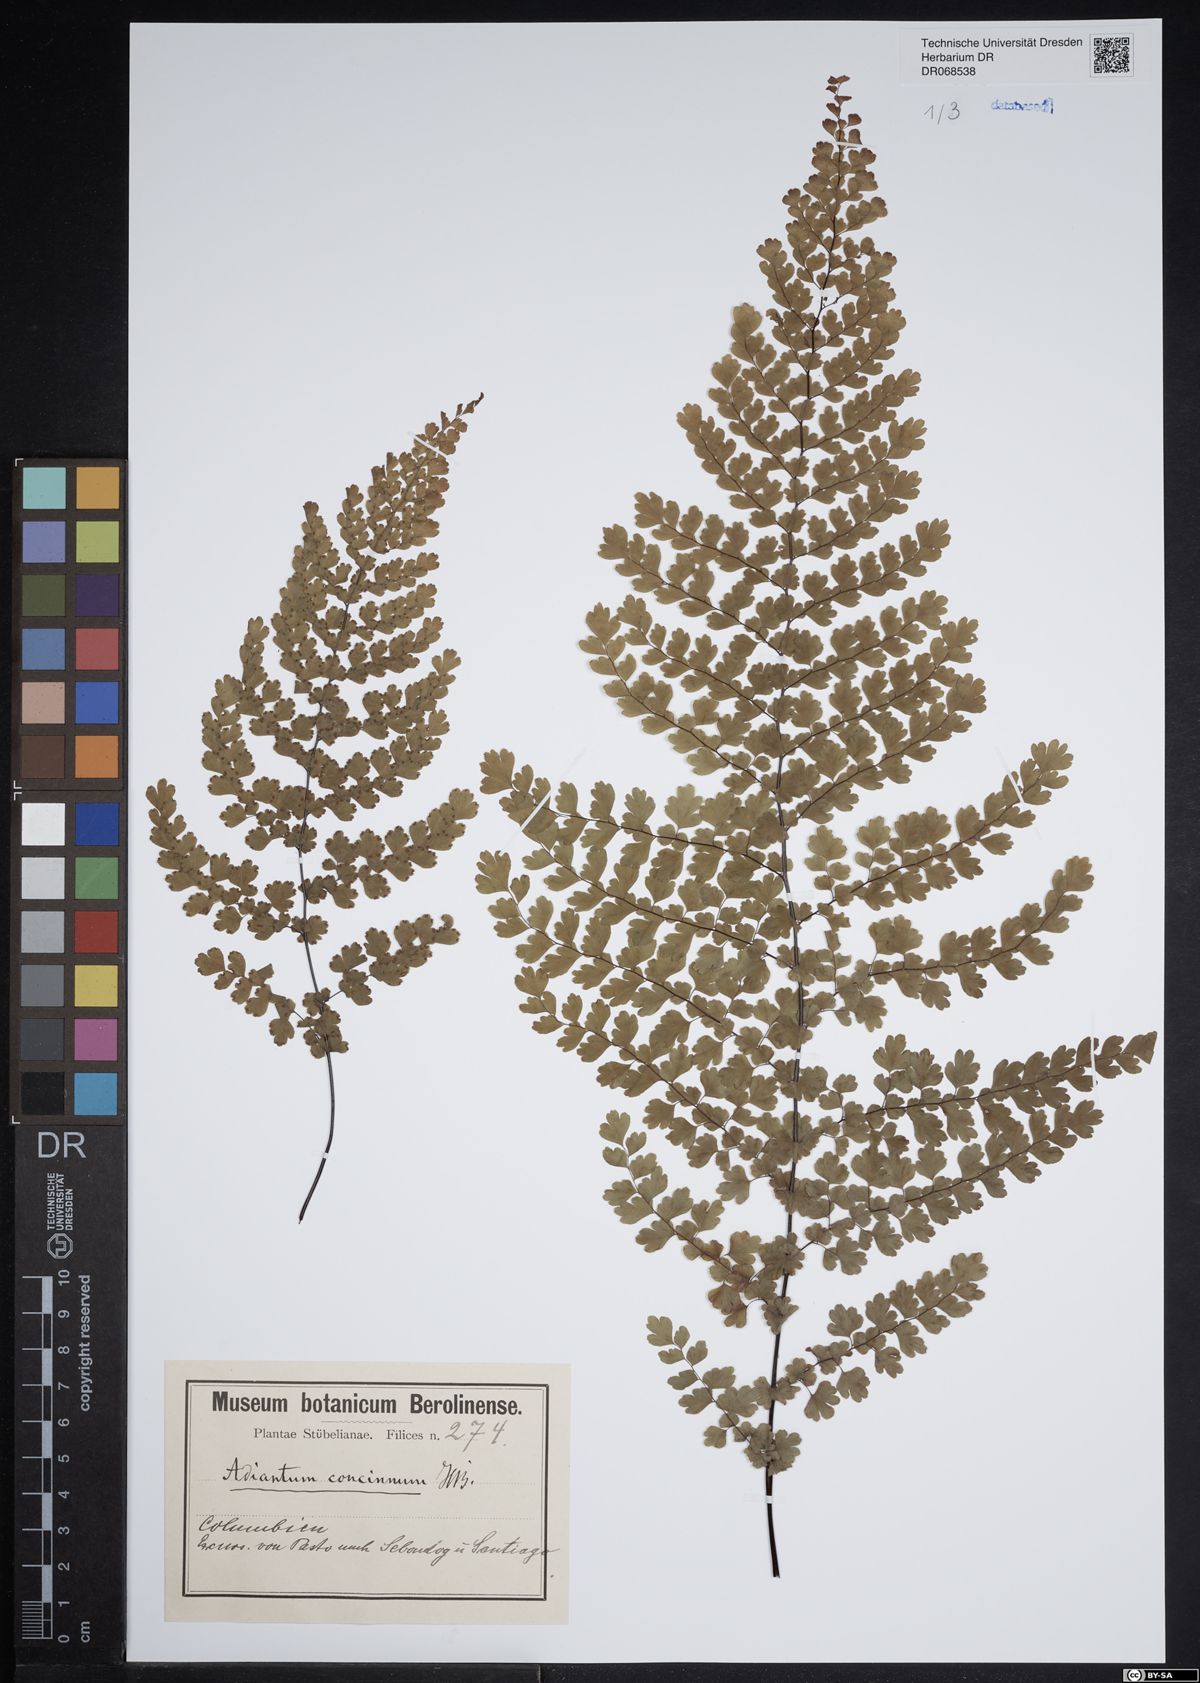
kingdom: Plantae
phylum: Tracheophyta
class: Polypodiopsida
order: Polypodiales
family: Pteridaceae
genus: Adiantum
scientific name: Adiantum concinnum
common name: Brittle maidenhair fern
